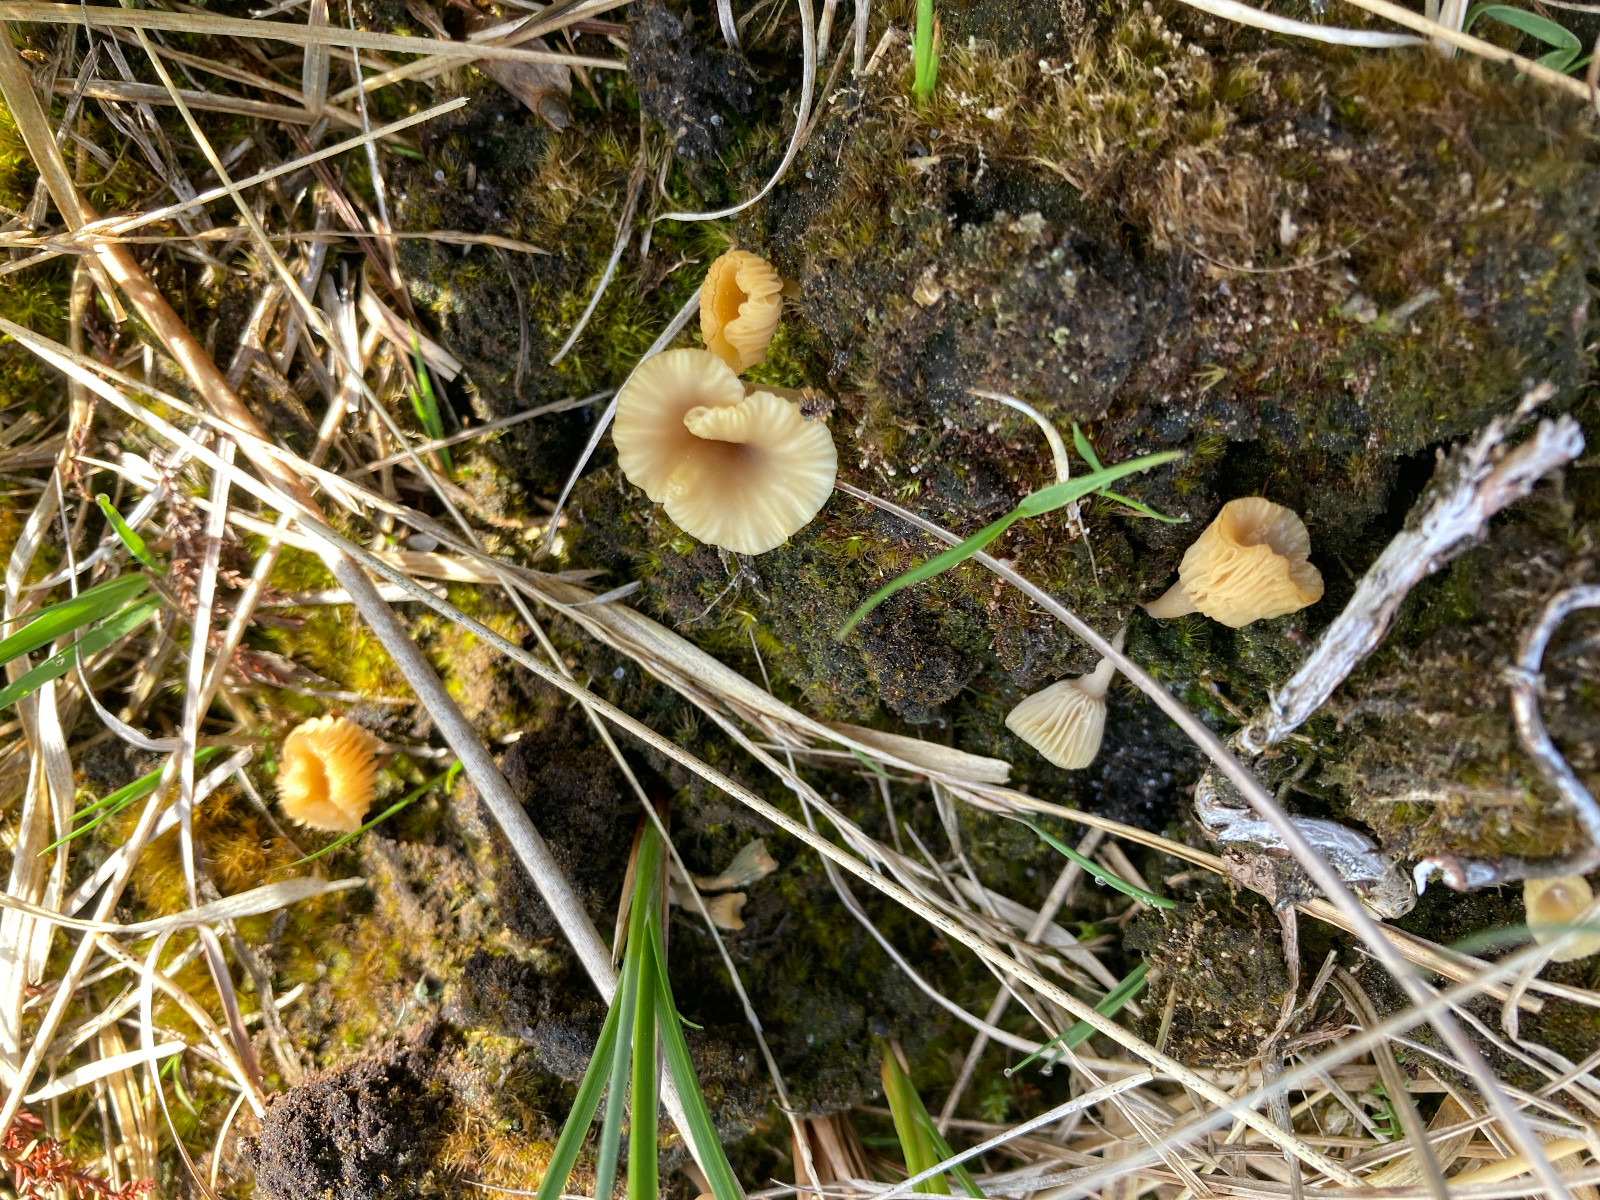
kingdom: Fungi
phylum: Basidiomycota
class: Agaricomycetes
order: Agaricales
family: Hygrophoraceae
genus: Lichenomphalia
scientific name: Lichenomphalia umbellifera
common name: tørve-lavhat
